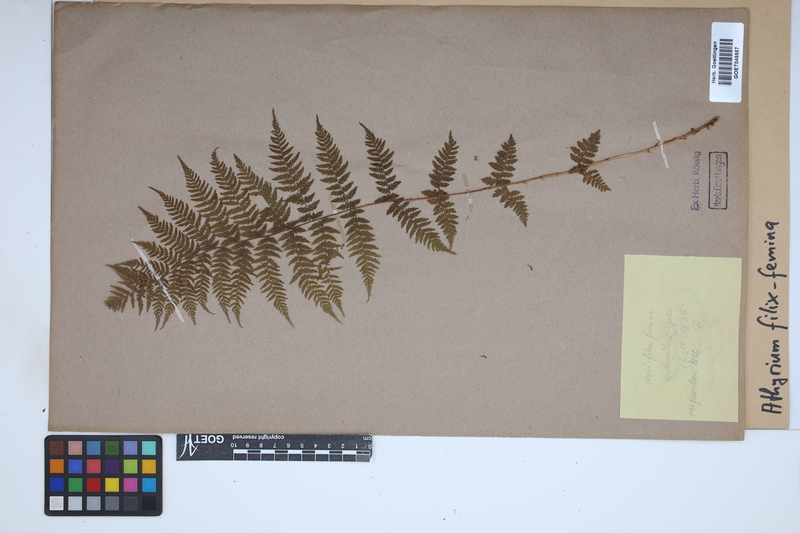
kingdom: Plantae
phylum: Tracheophyta
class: Polypodiopsida
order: Polypodiales
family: Athyriaceae
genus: Athyrium
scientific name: Athyrium filix-femina
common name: Lady fern
